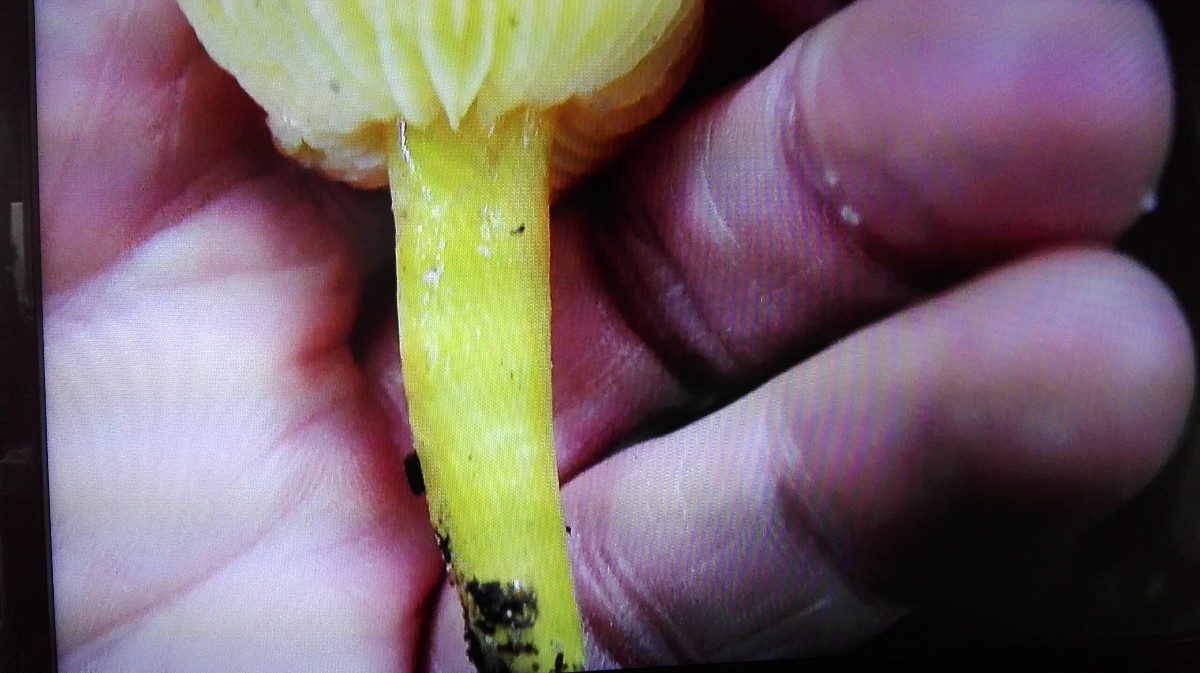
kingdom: Fungi
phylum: Basidiomycota
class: Agaricomycetes
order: Agaricales
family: Hygrophoraceae
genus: Hygrocybe
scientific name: Hygrocybe chlorophana
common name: gul vokshat
